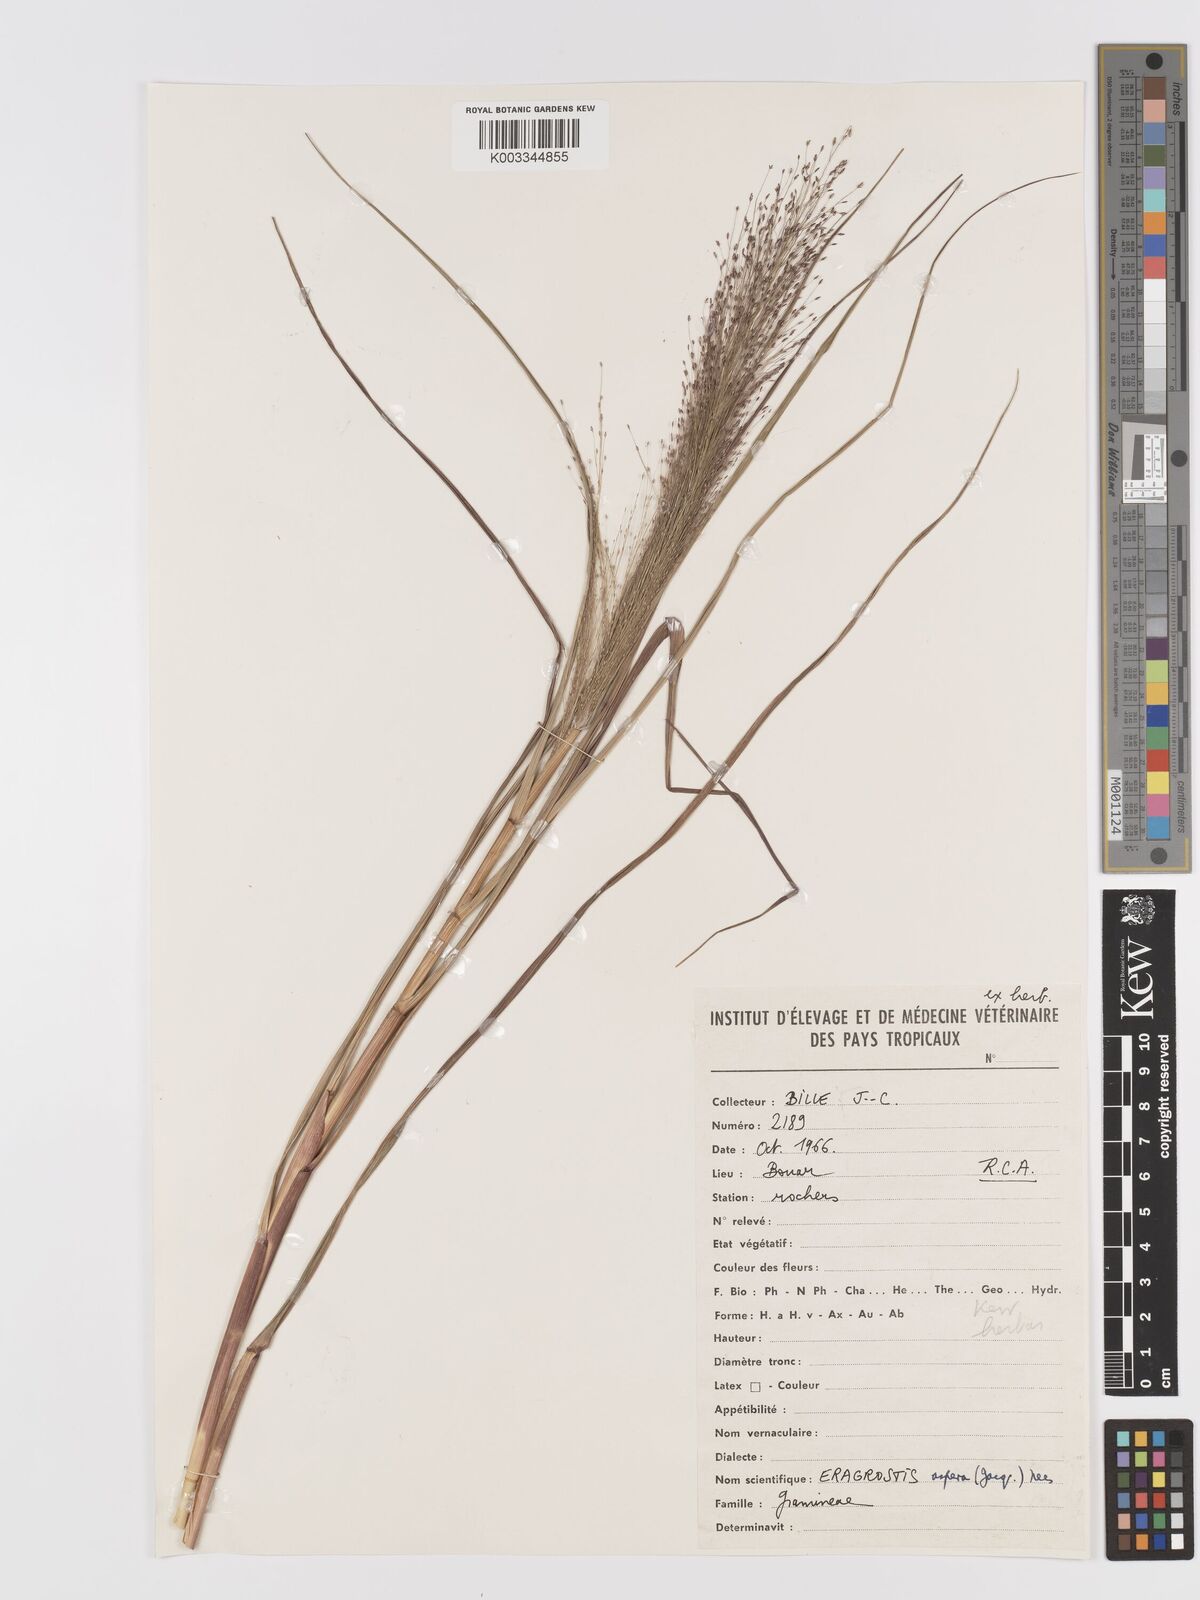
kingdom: Plantae
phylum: Tracheophyta
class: Liliopsida
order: Poales
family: Poaceae
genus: Eragrostis
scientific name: Eragrostis aspera
